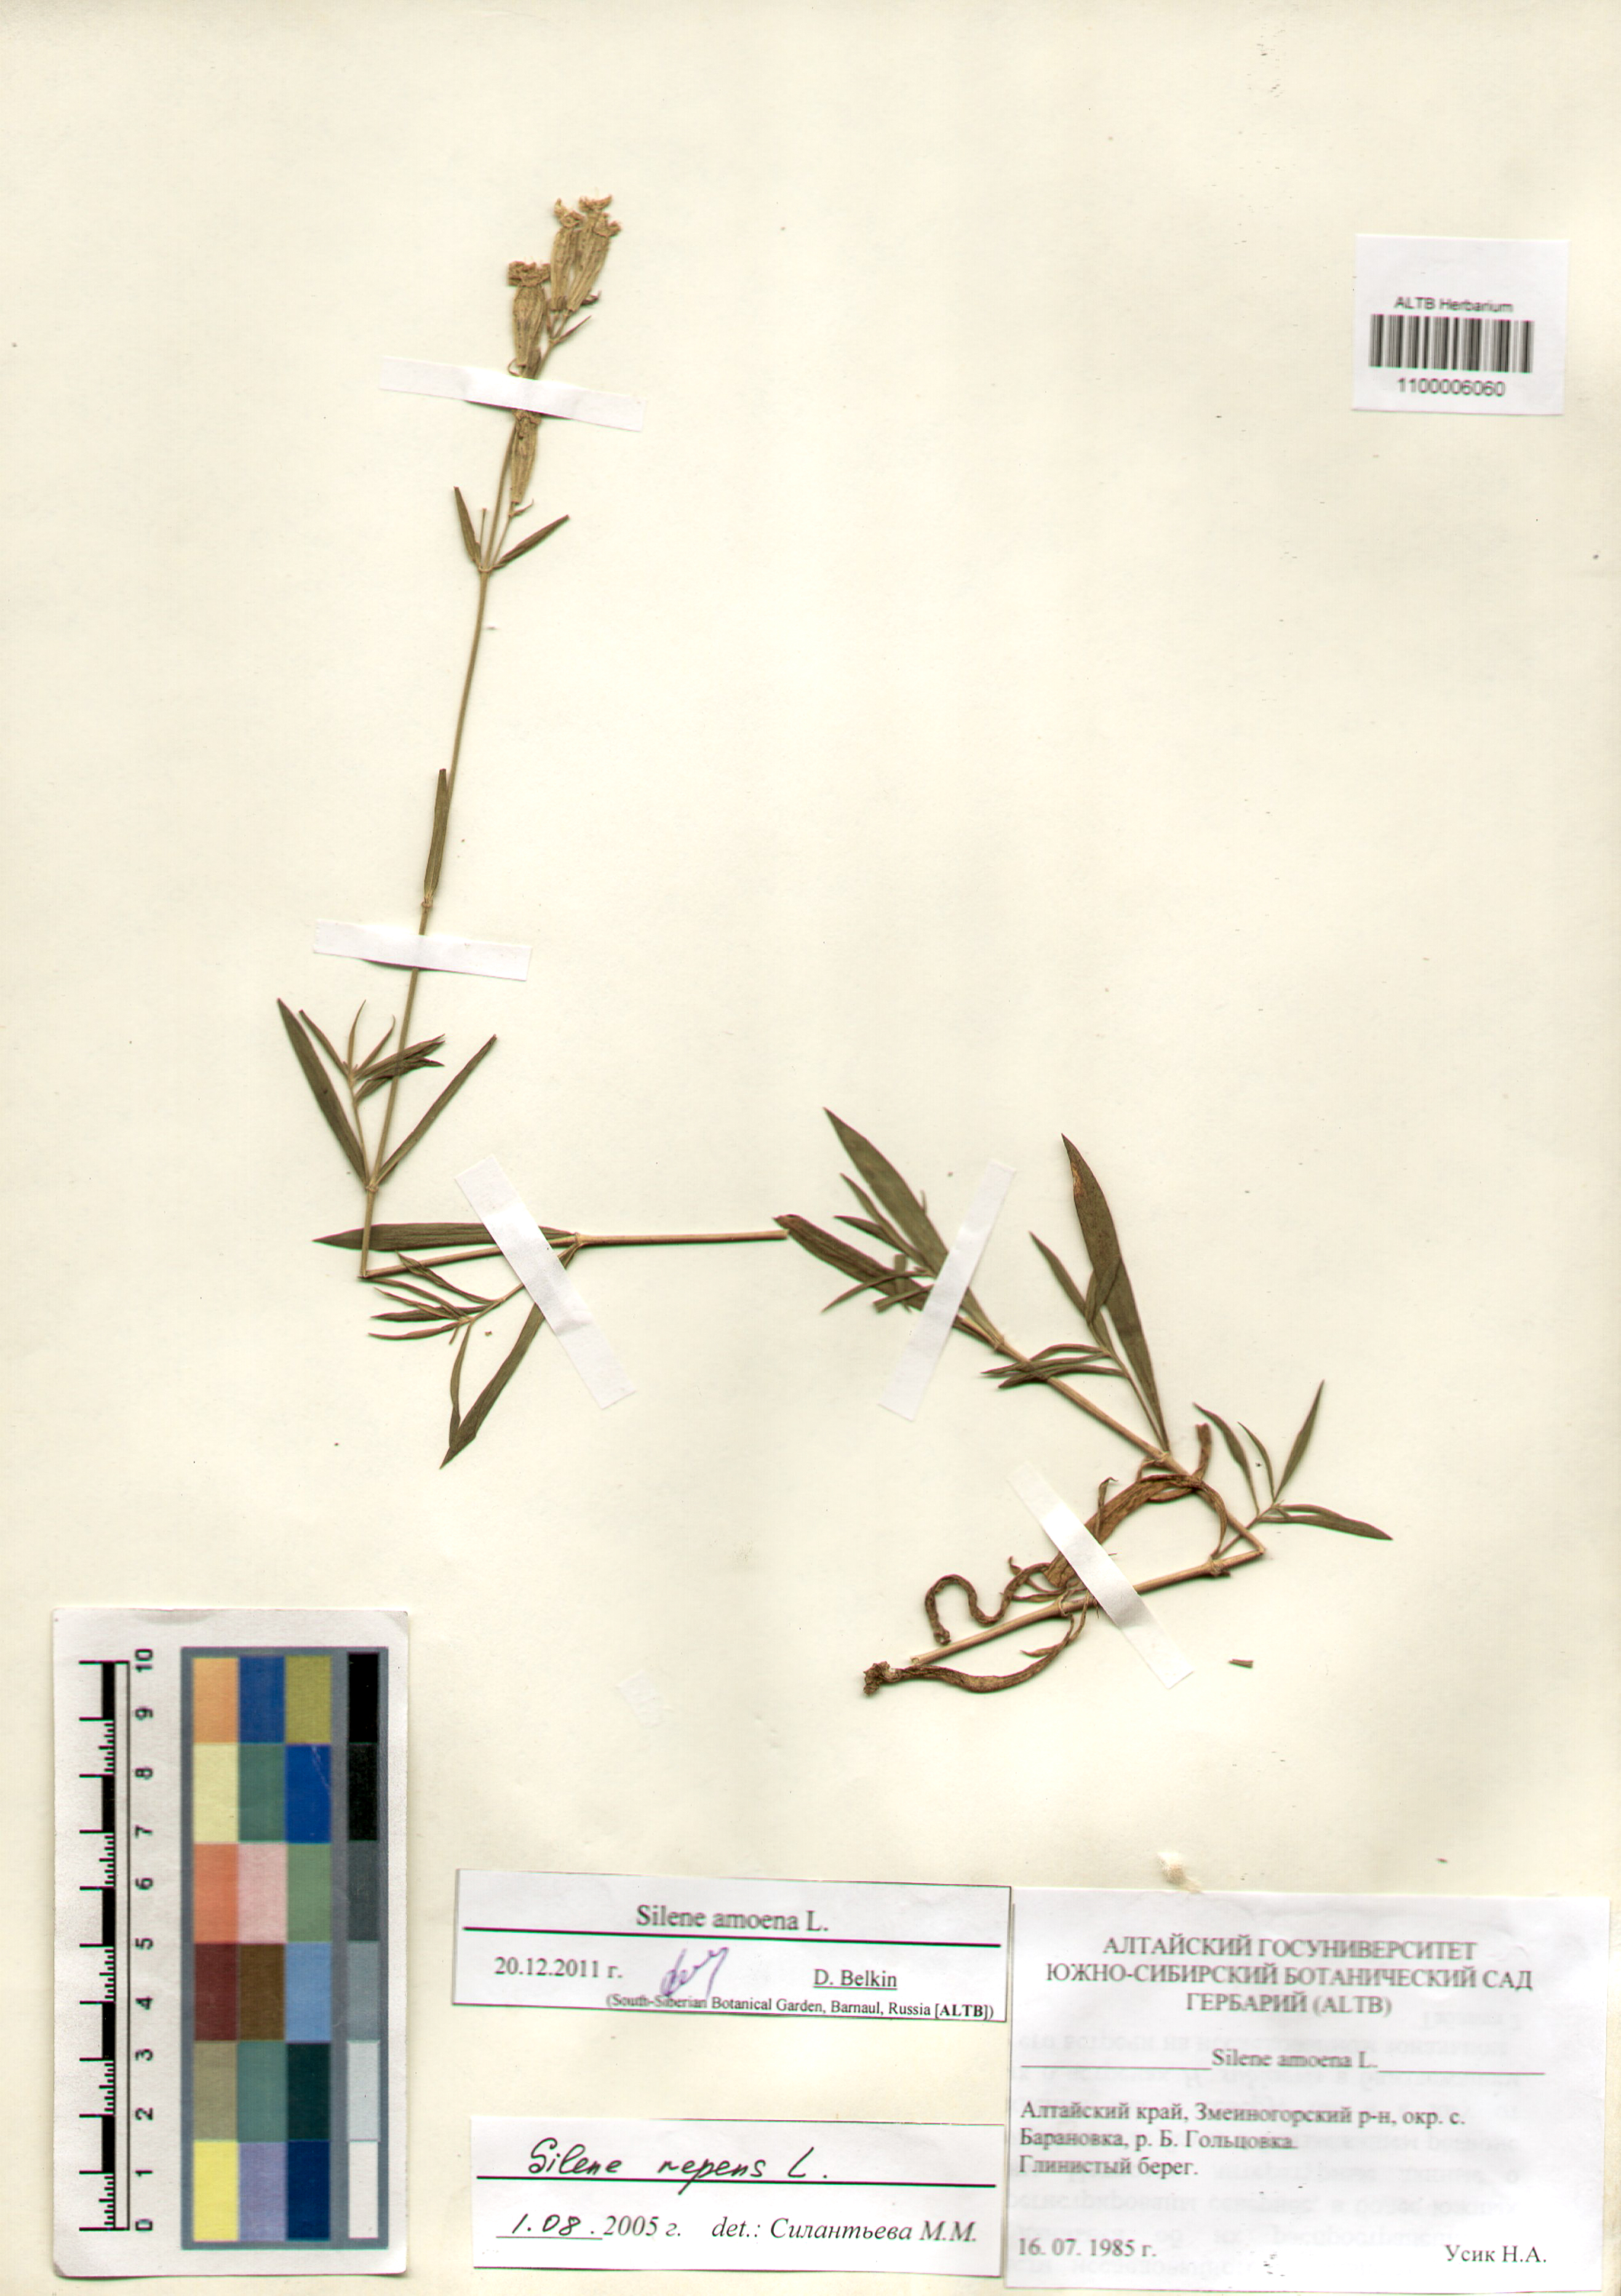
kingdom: Plantae
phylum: Tracheophyta
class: Magnoliopsida
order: Caryophyllales
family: Caryophyllaceae
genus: Silene
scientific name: Silene amoena
